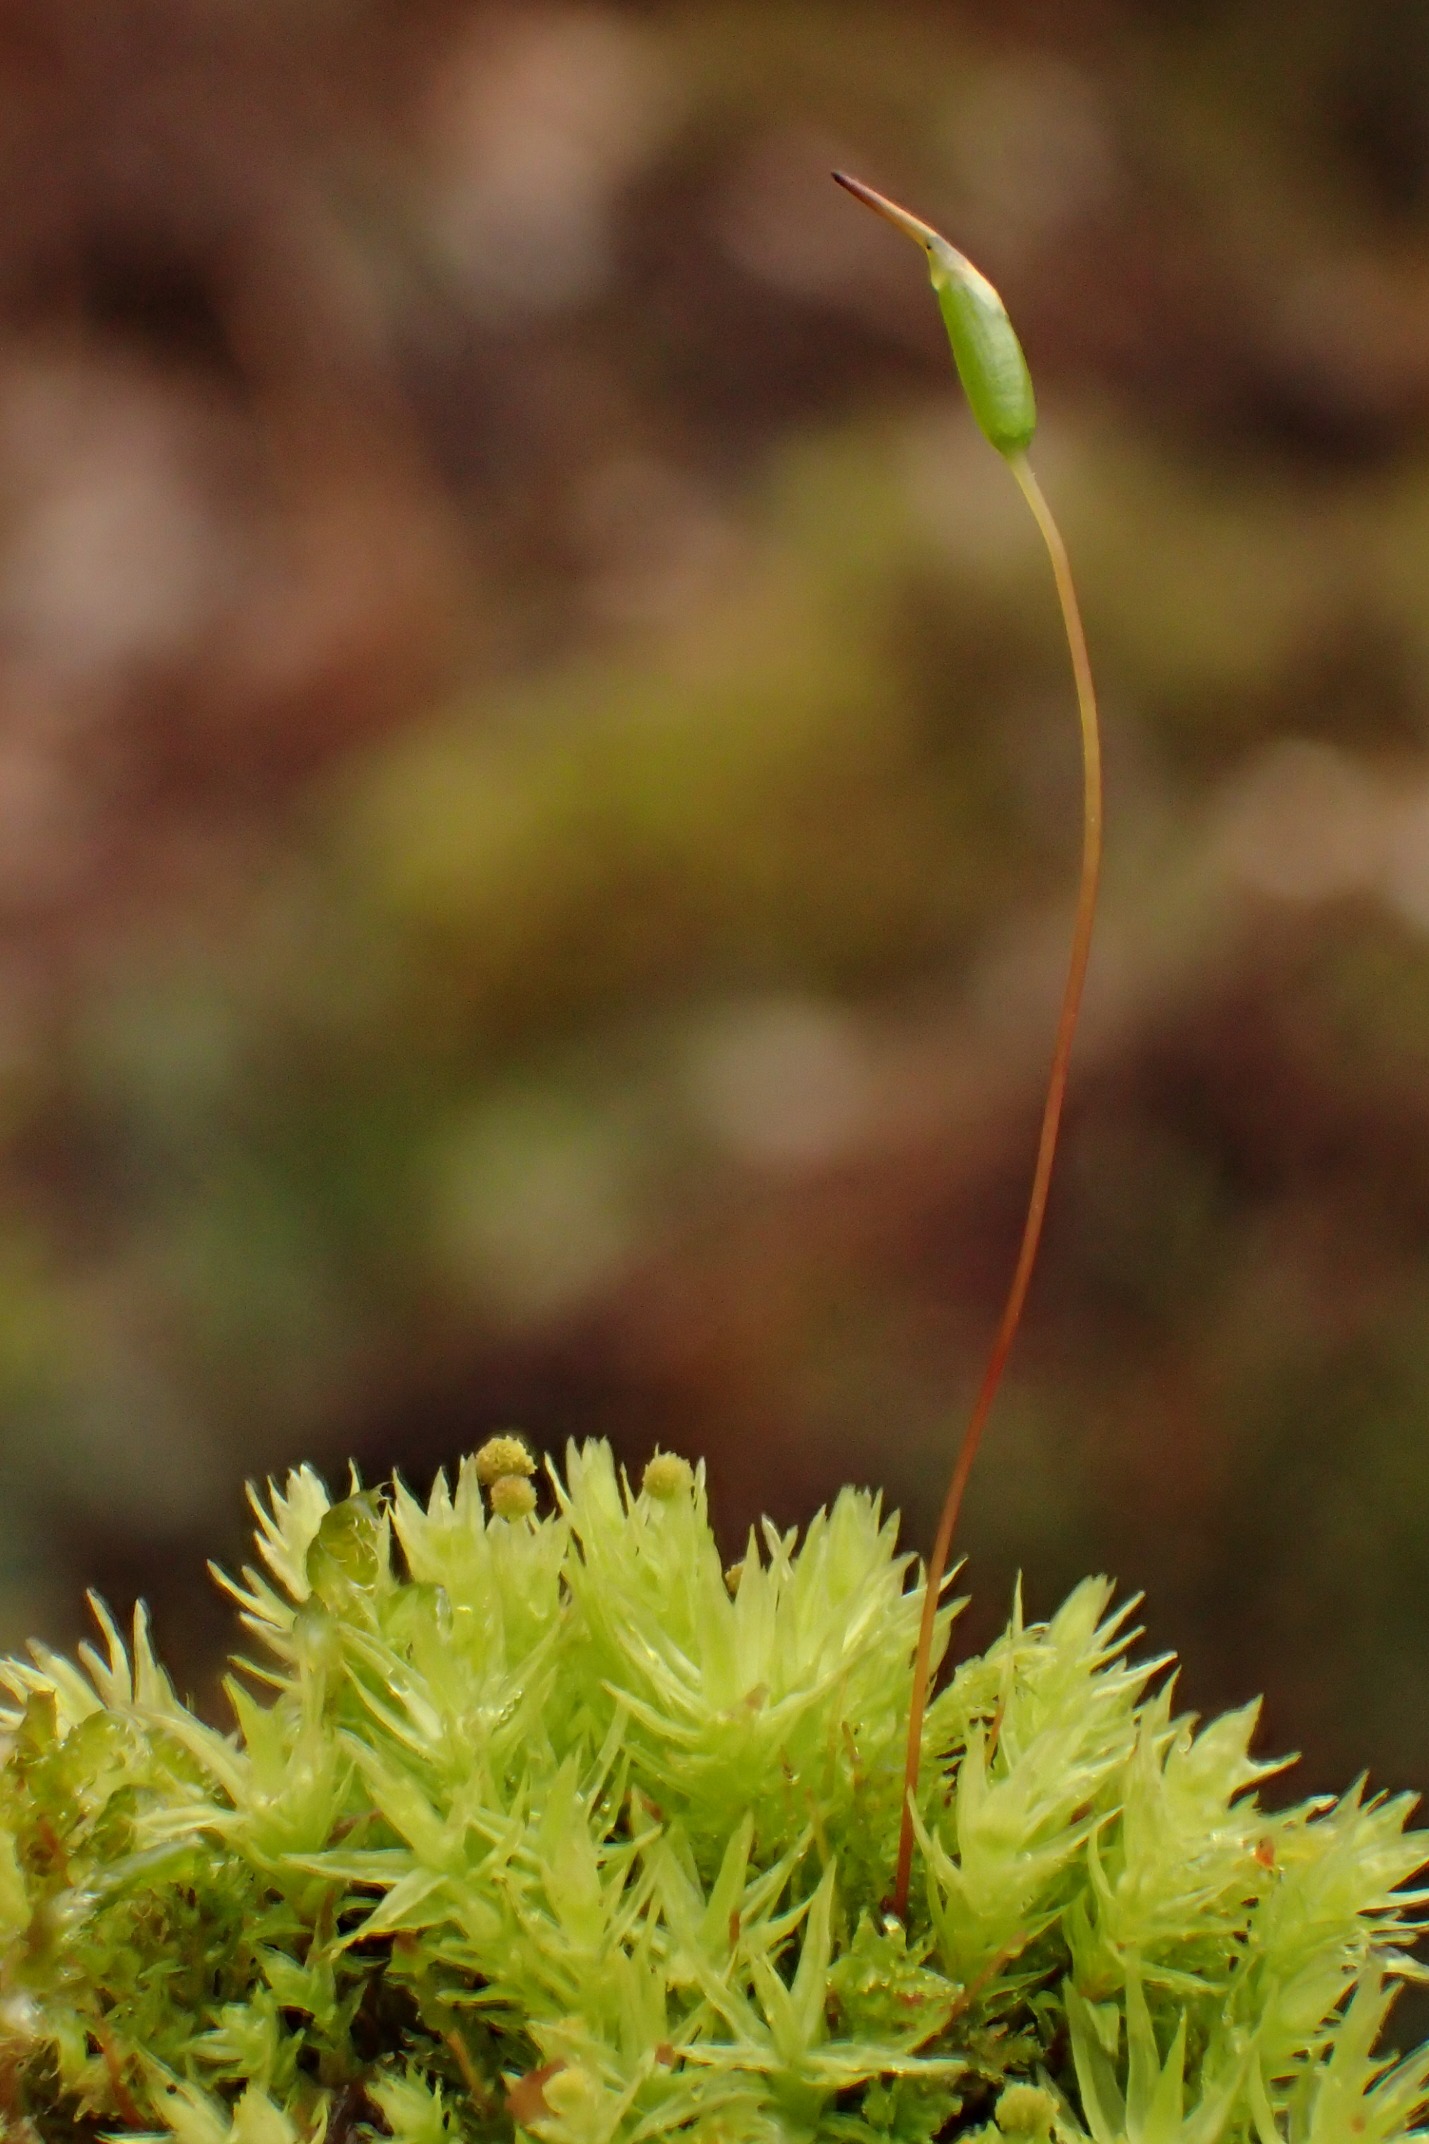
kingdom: Plantae
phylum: Bryophyta
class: Bryopsida
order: Aulacomniales
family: Aulacomniaceae
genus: Aulacomnium
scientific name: Aulacomnium androgynum
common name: Kugle-filtmos
